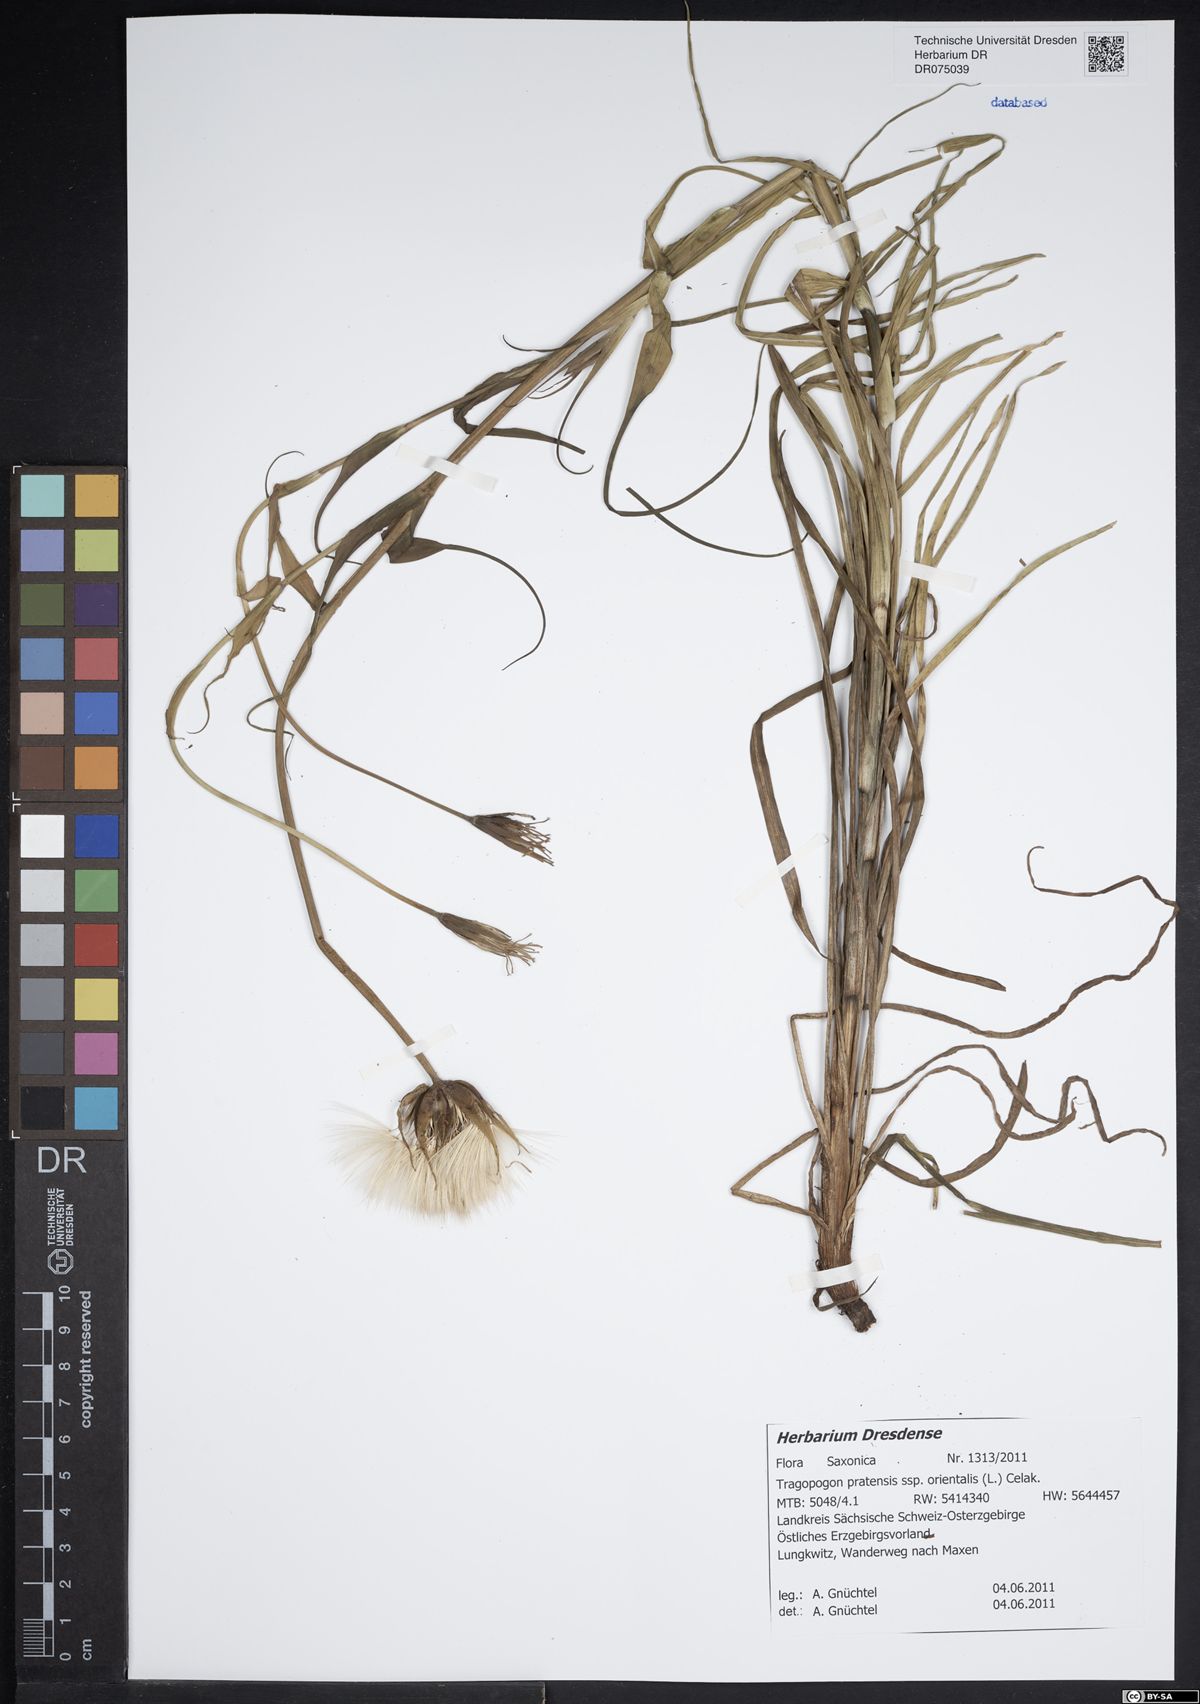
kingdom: Plantae
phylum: Tracheophyta
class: Magnoliopsida
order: Asterales
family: Asteraceae
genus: Tragopogon
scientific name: Tragopogon orientalis
